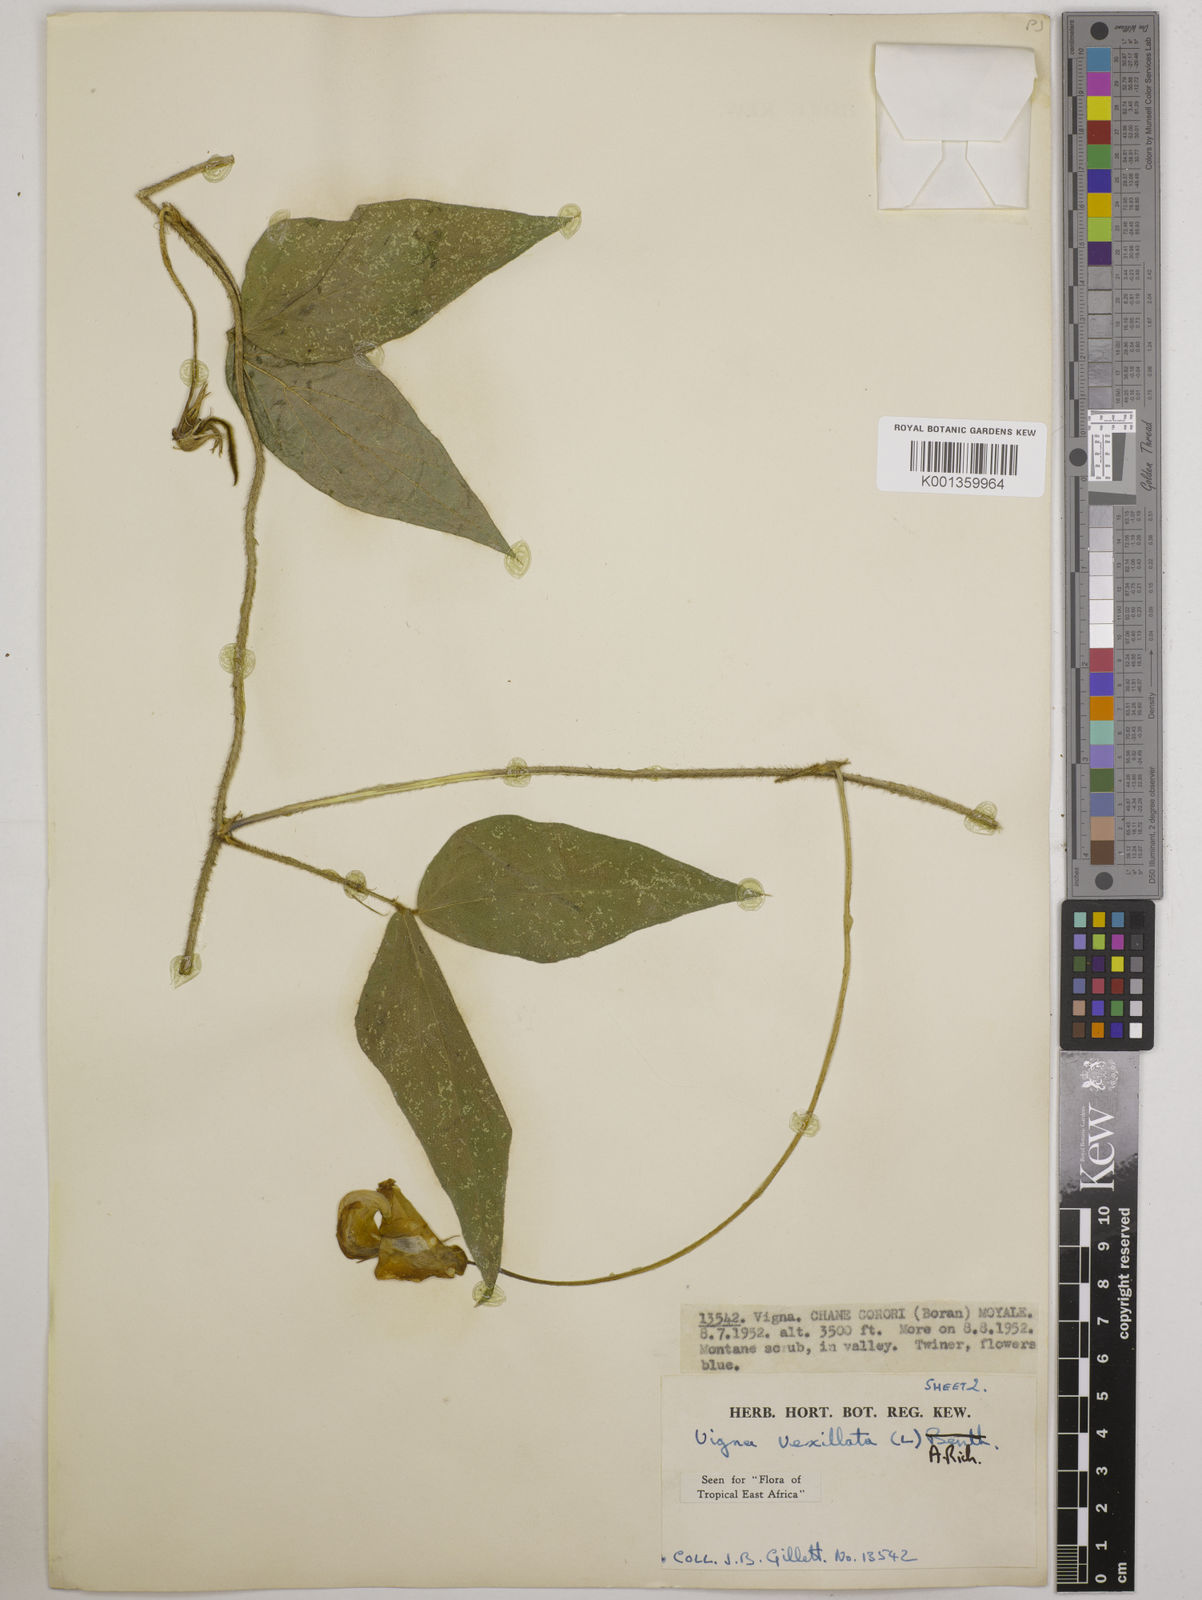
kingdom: Plantae
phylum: Tracheophyta
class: Magnoliopsida
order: Fabales
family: Fabaceae
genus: Vigna
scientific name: Vigna vexillata
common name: Zombi pea
